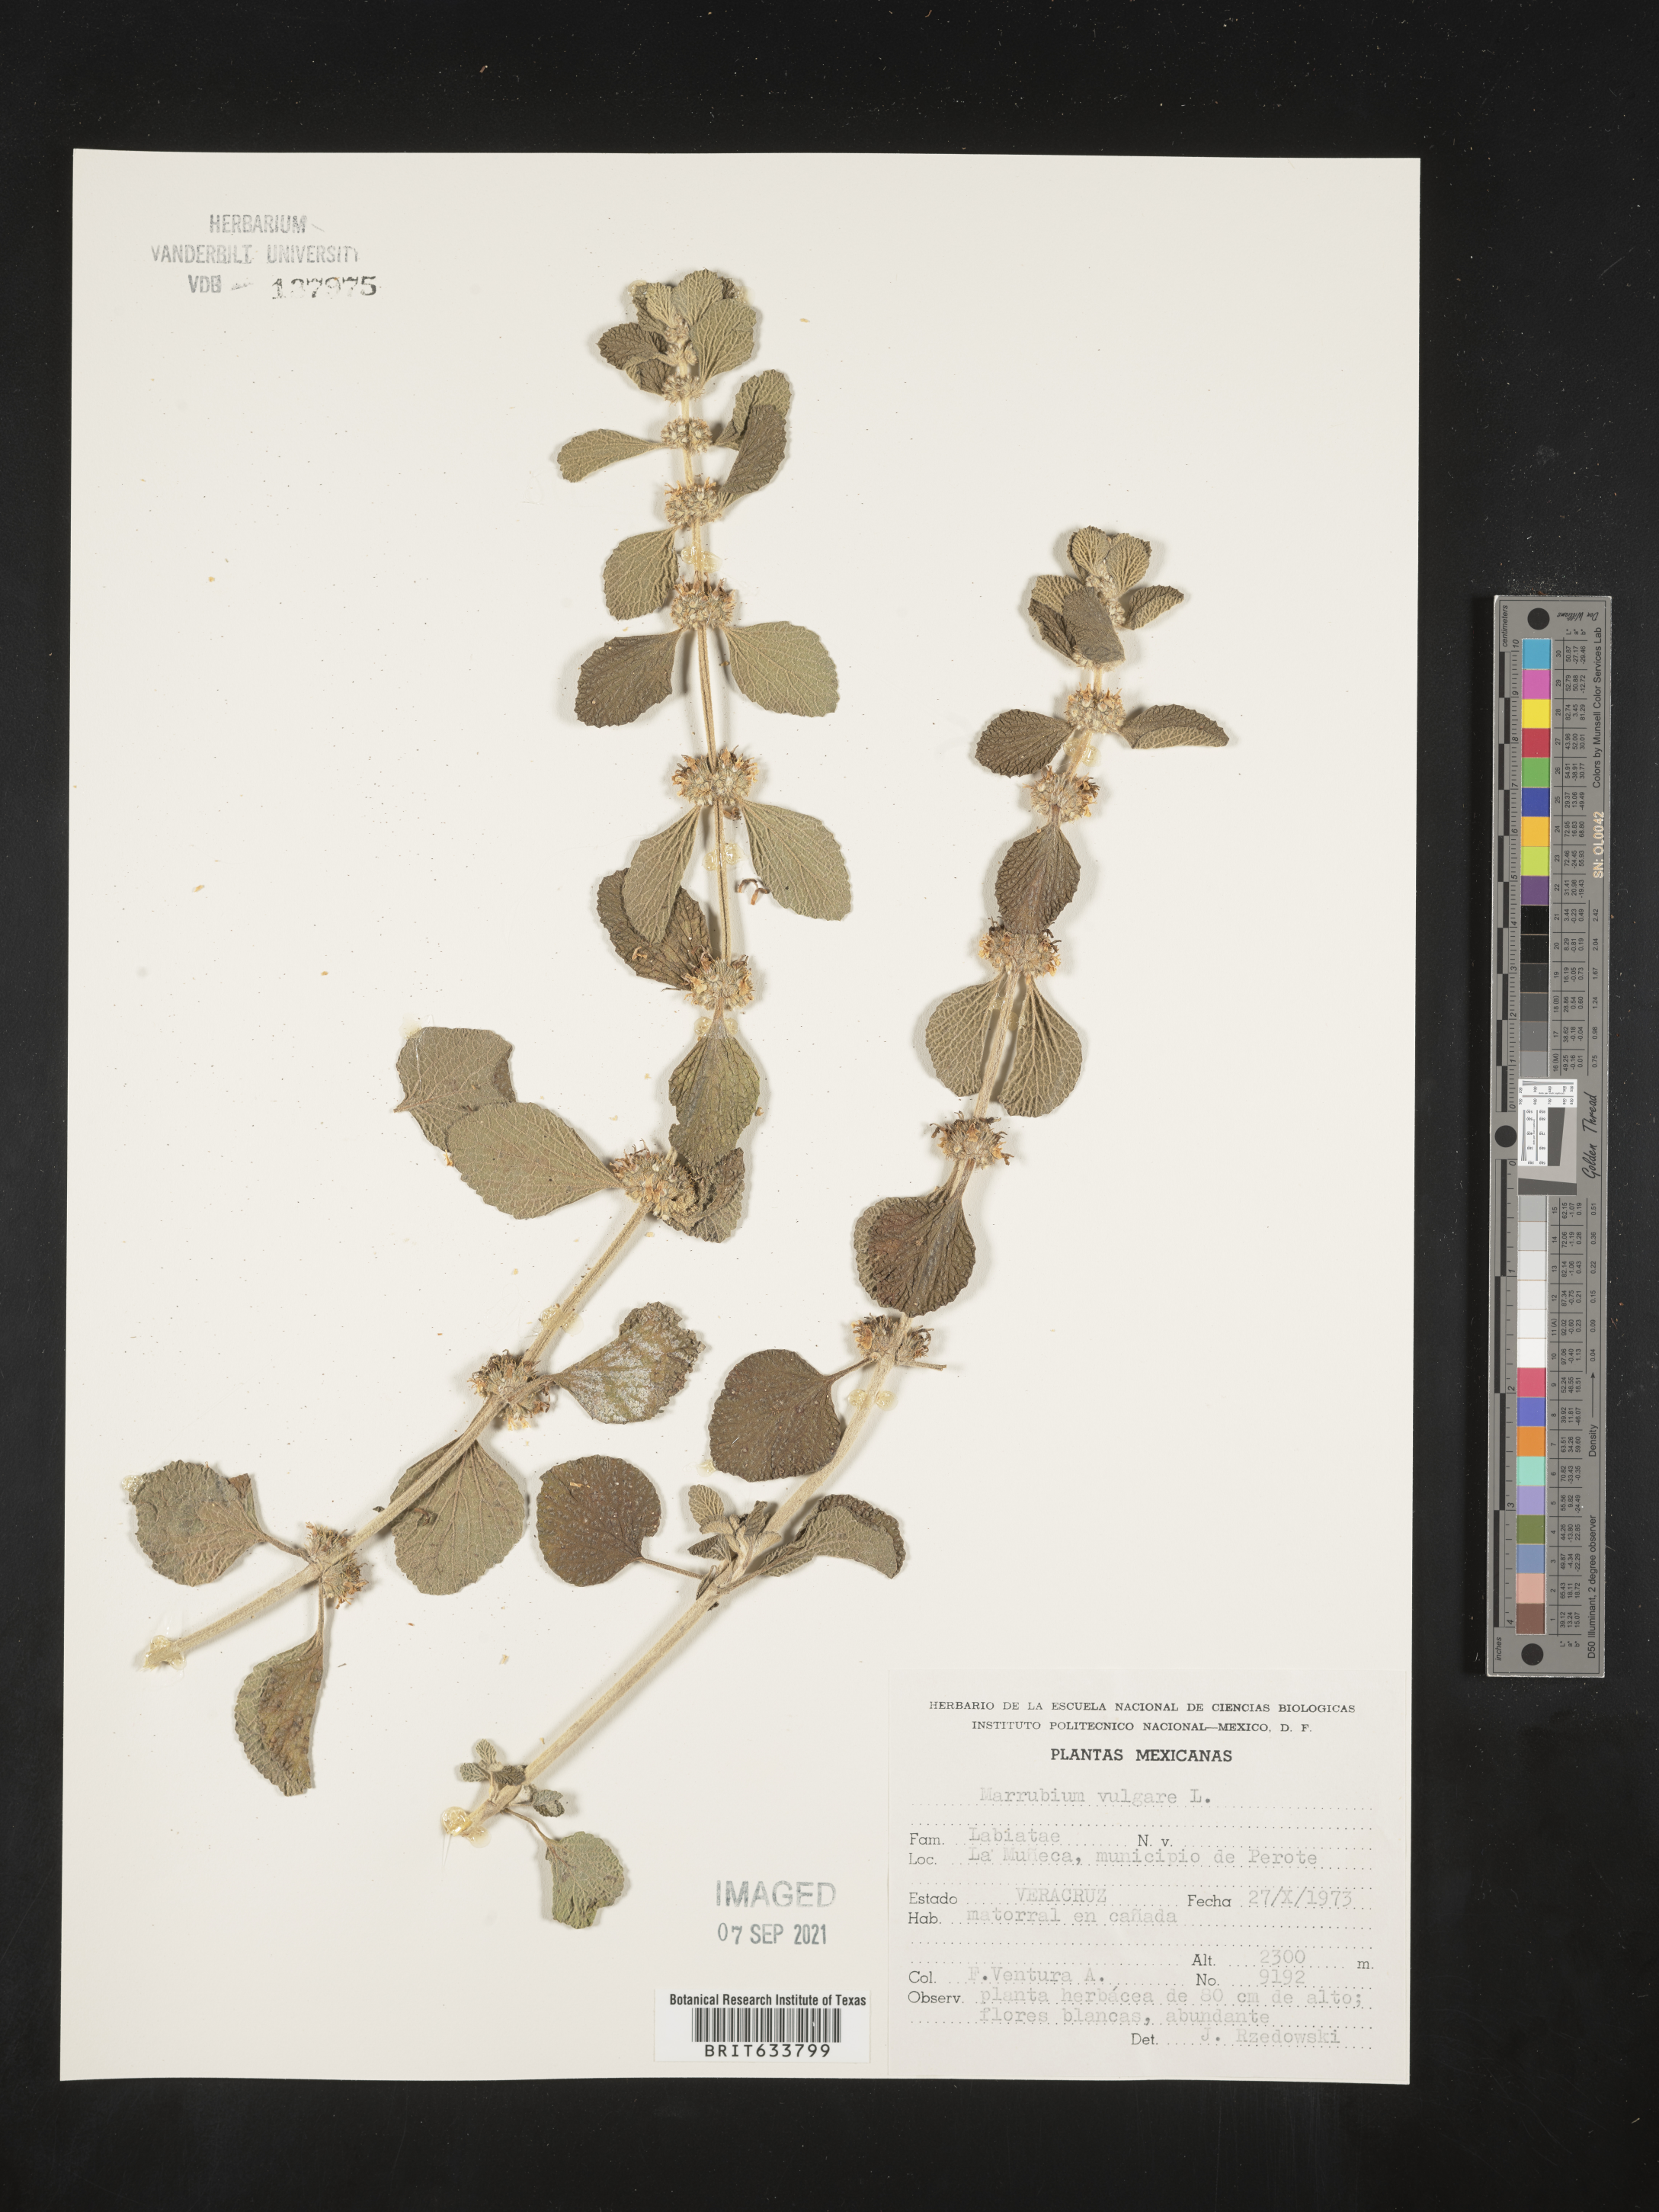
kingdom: Plantae
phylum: Tracheophyta
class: Magnoliopsida
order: Lamiales
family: Lamiaceae
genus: Marrubium
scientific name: Marrubium
